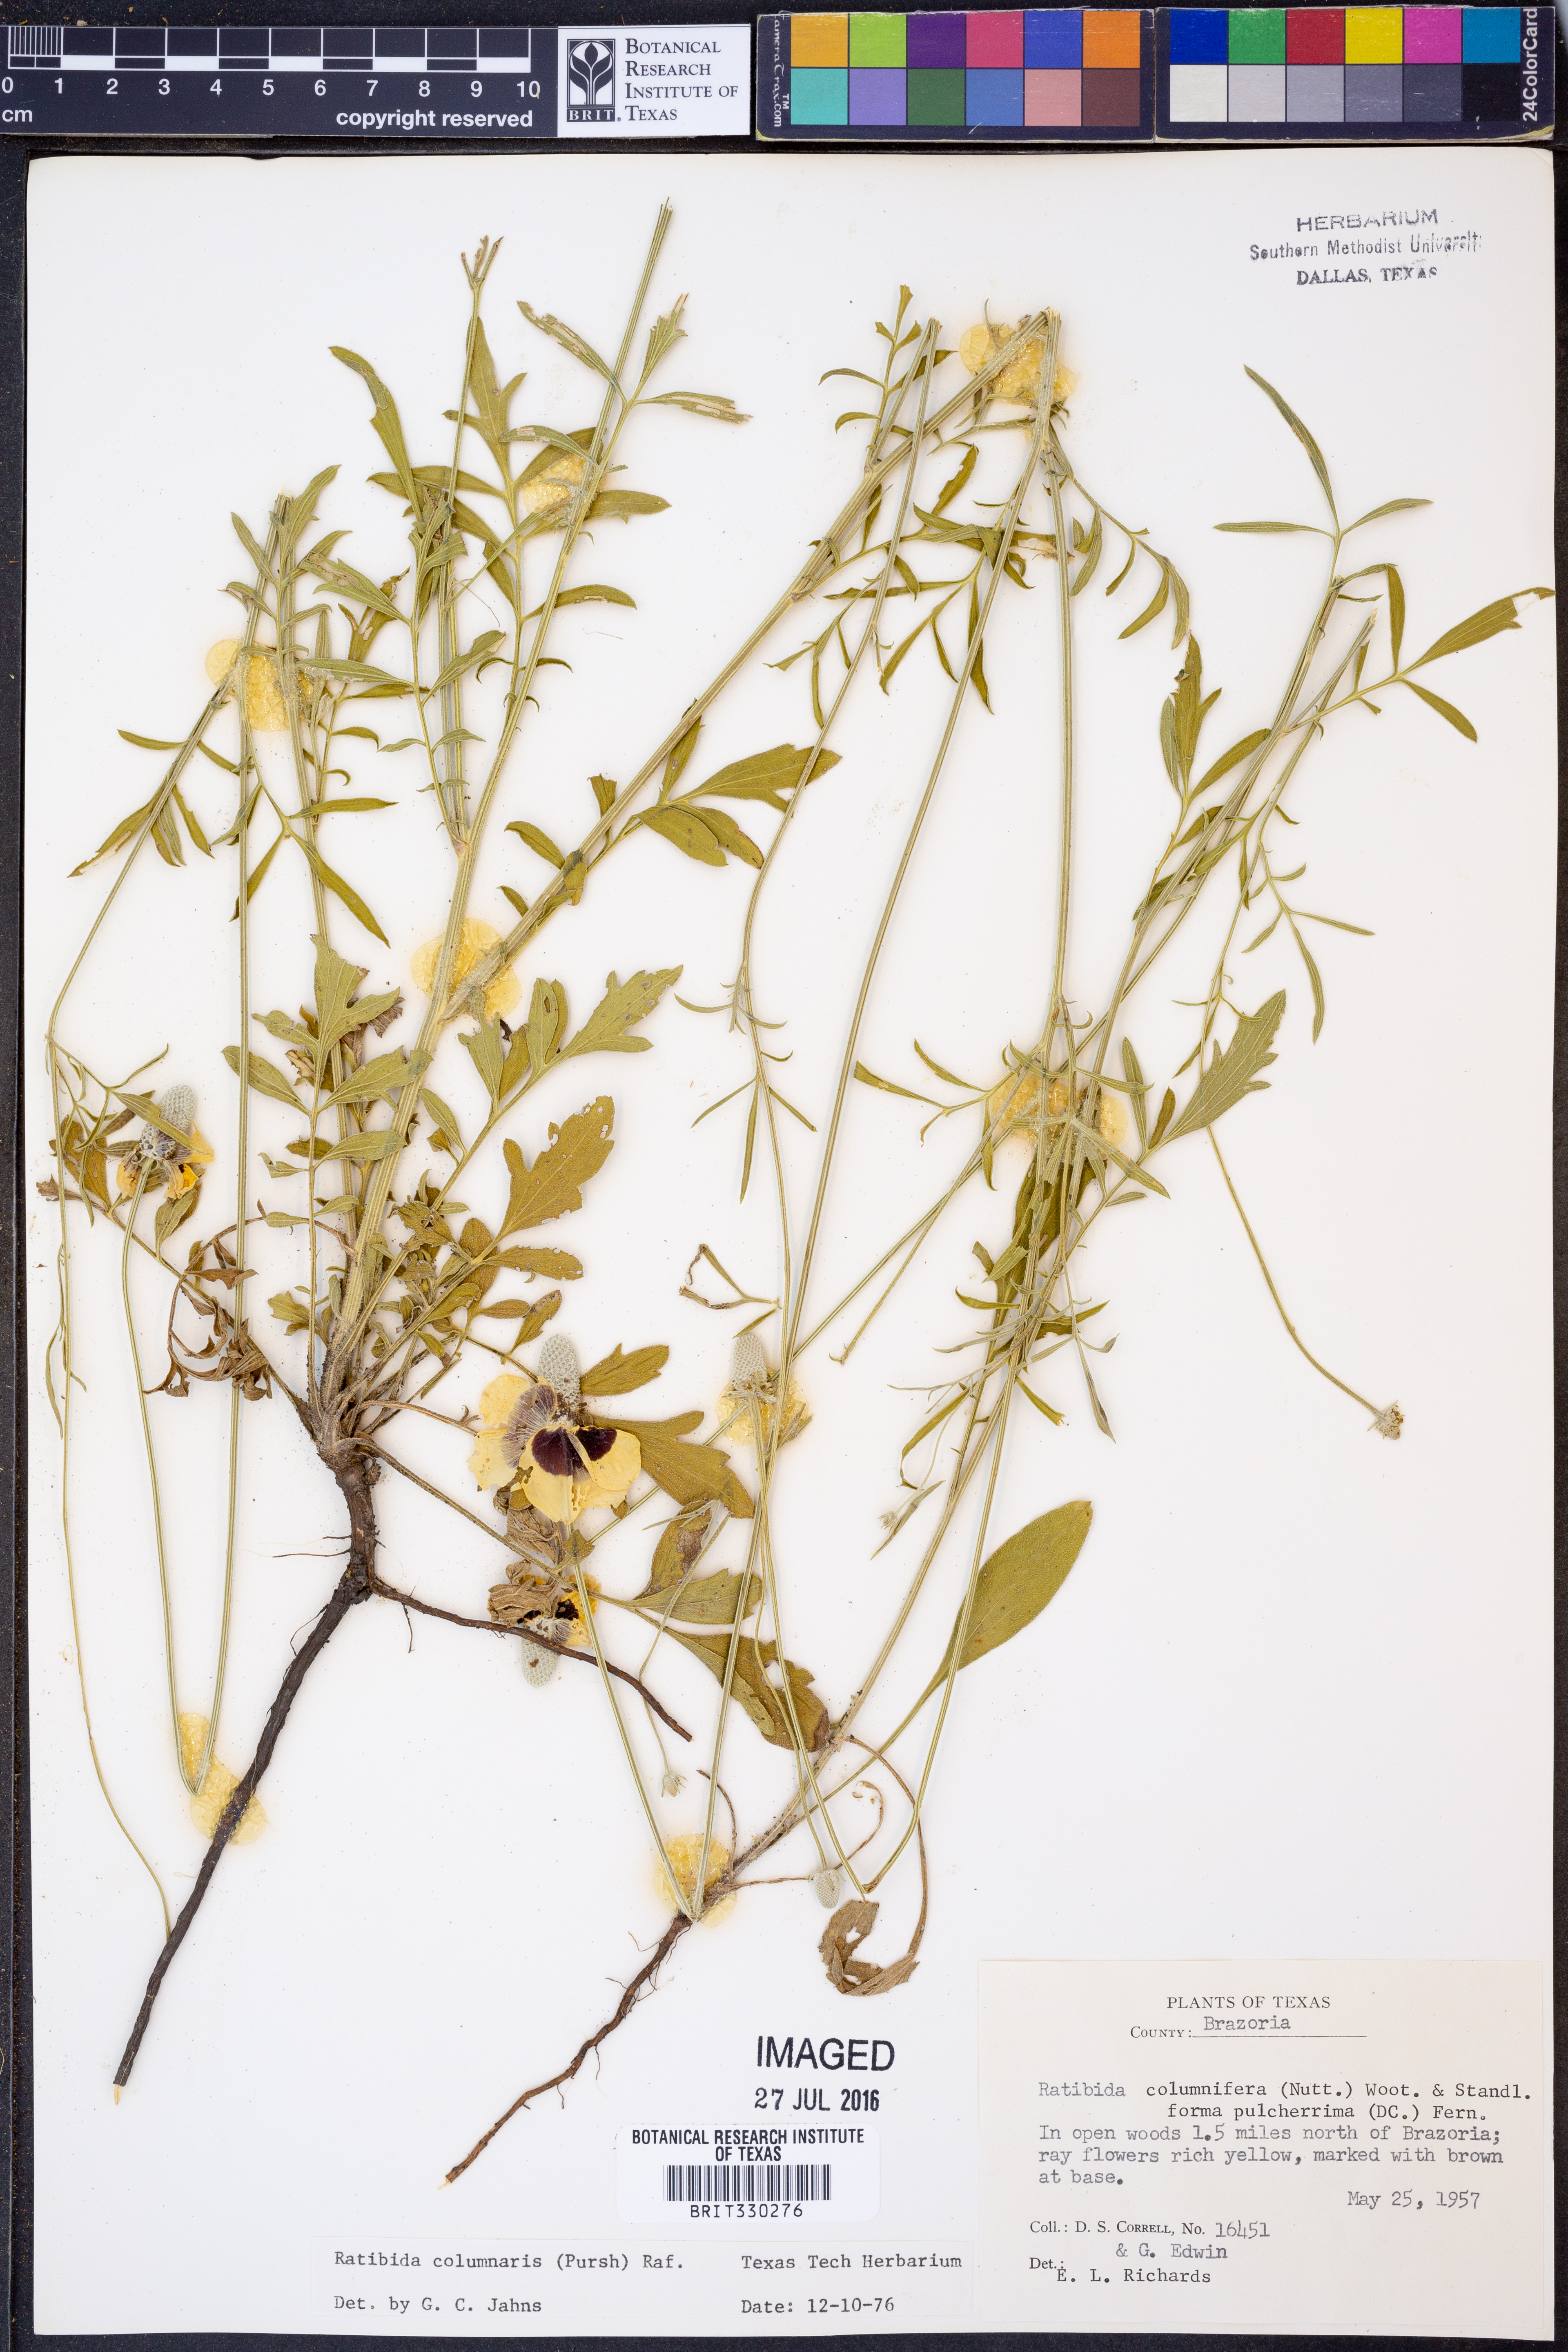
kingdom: Plantae
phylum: Tracheophyta
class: Magnoliopsida
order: Asterales
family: Asteraceae
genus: Ratibida
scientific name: Ratibida columnifera
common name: Prairie coneflower
